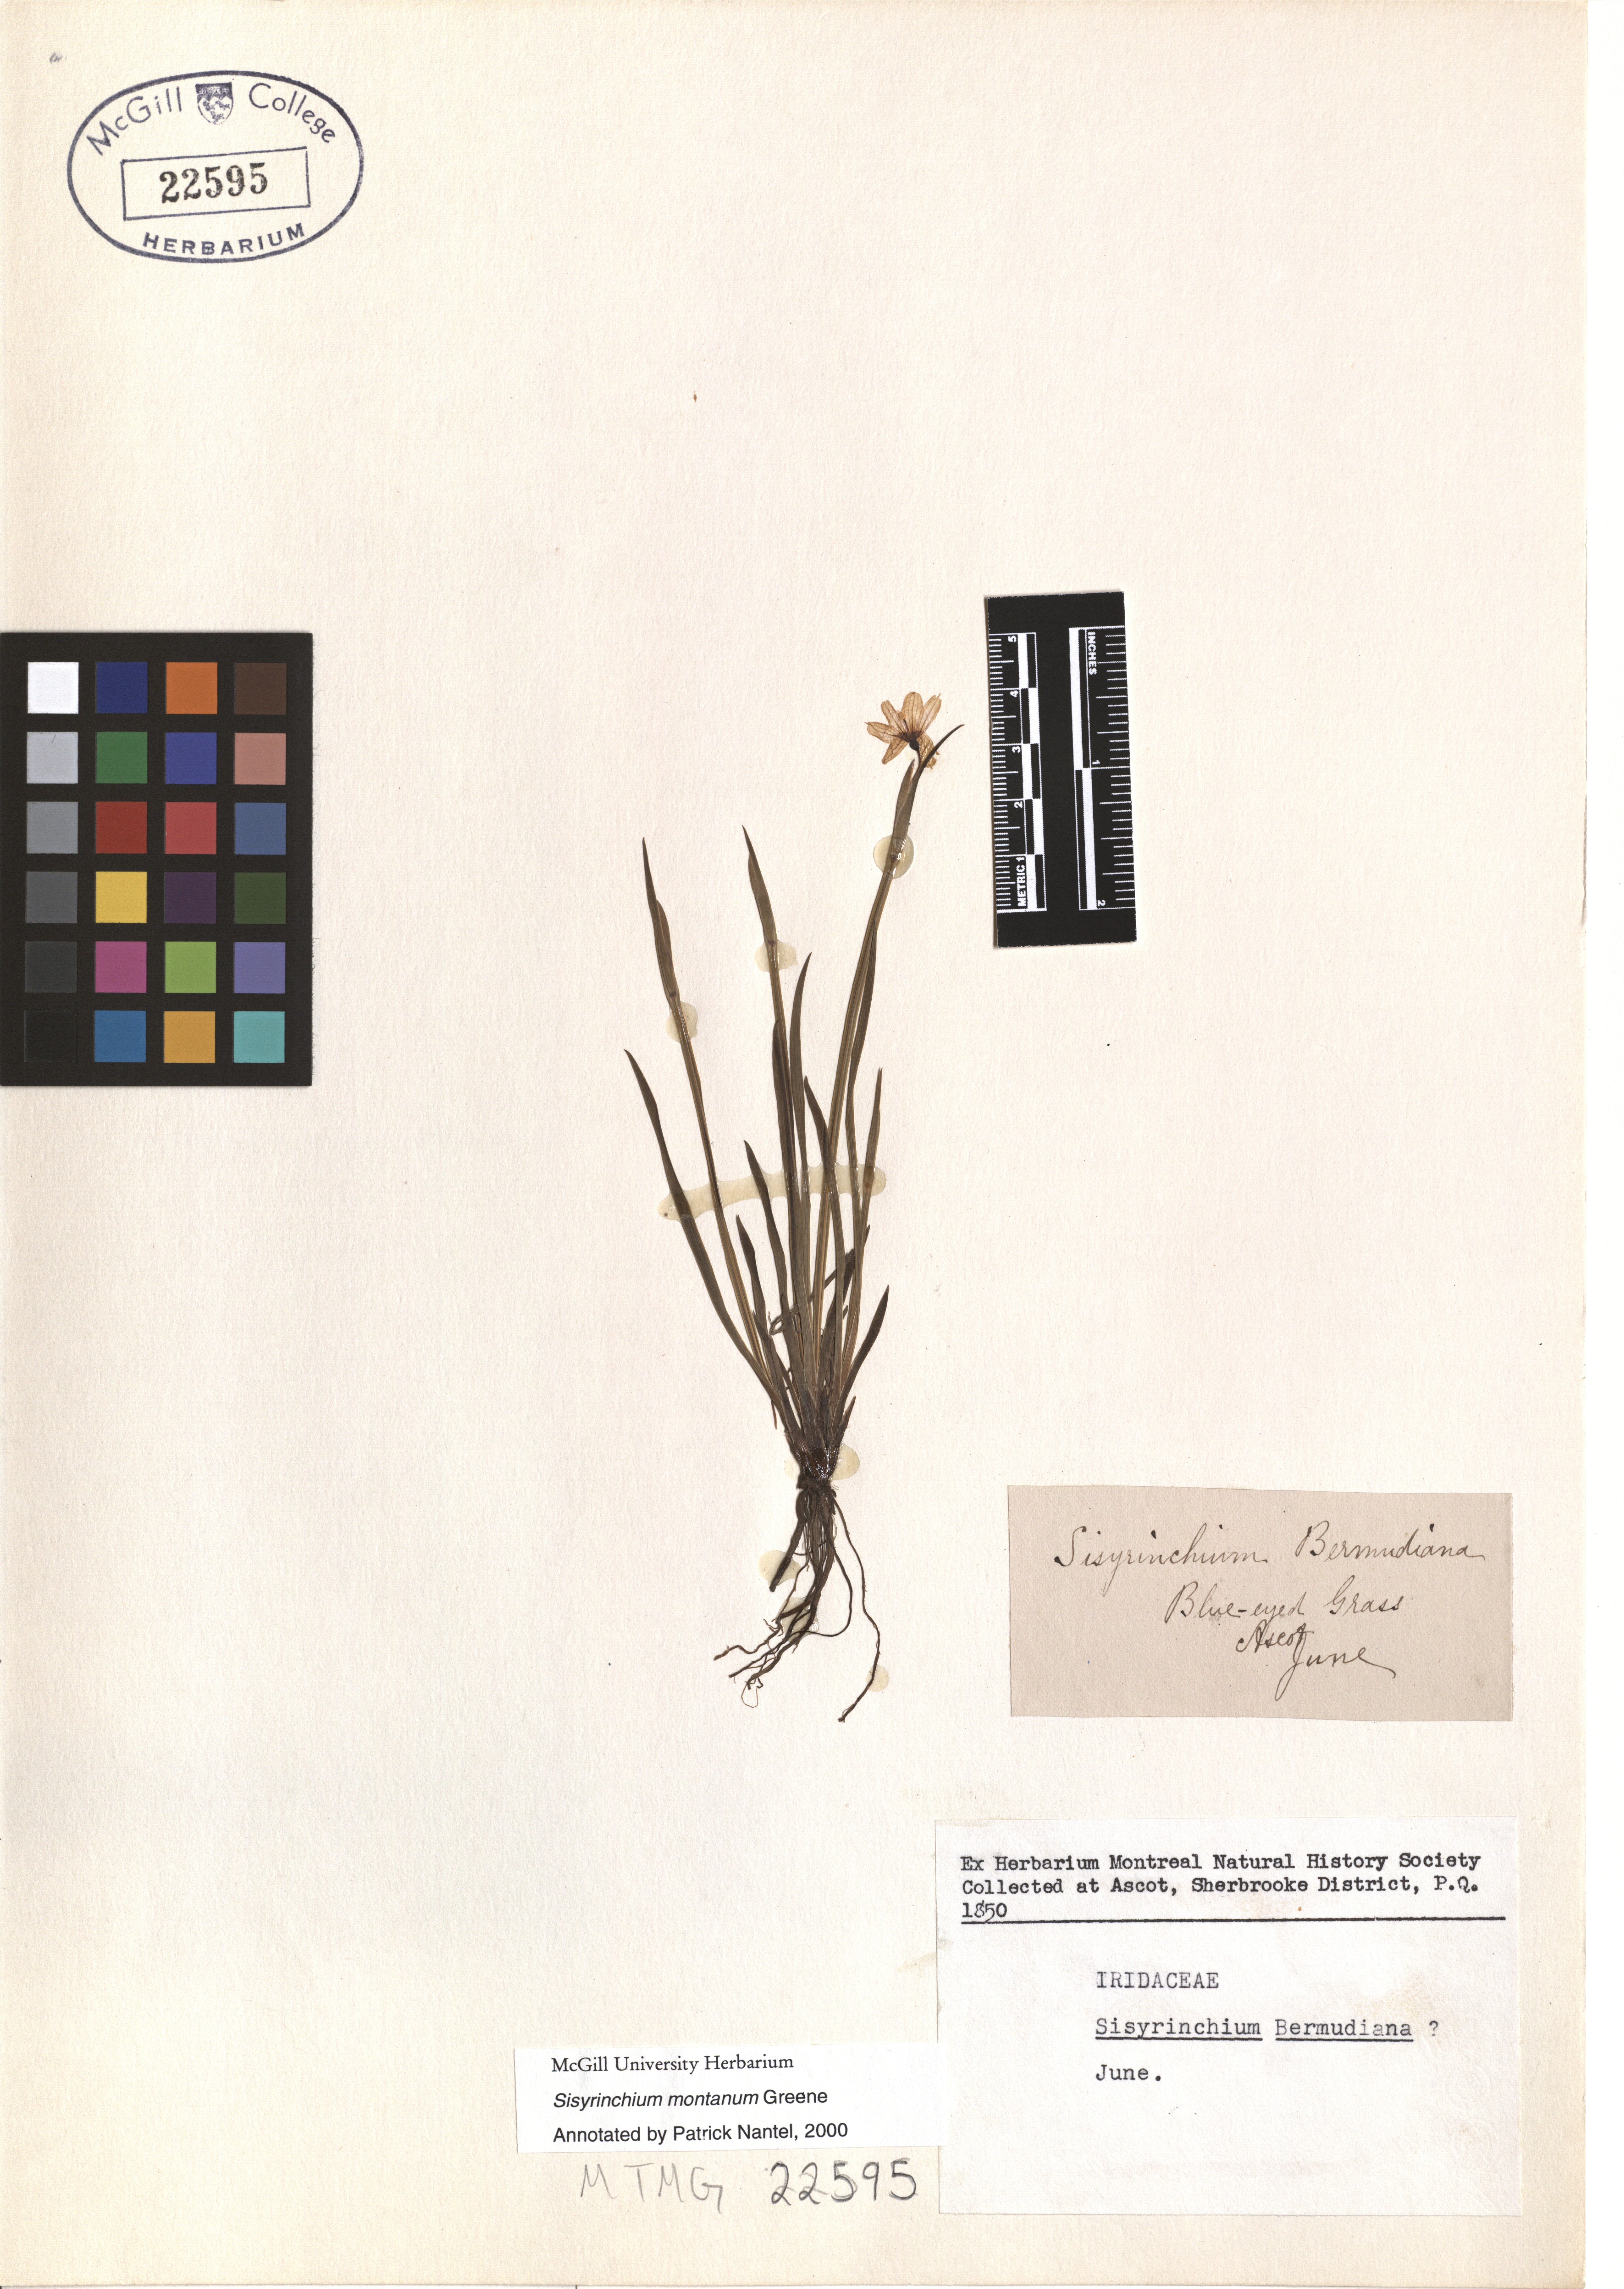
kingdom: Plantae
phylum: Tracheophyta
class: Liliopsida
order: Asparagales
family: Iridaceae
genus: Sisyrinchium
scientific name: Sisyrinchium montanum
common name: American blue-eyed-grass
